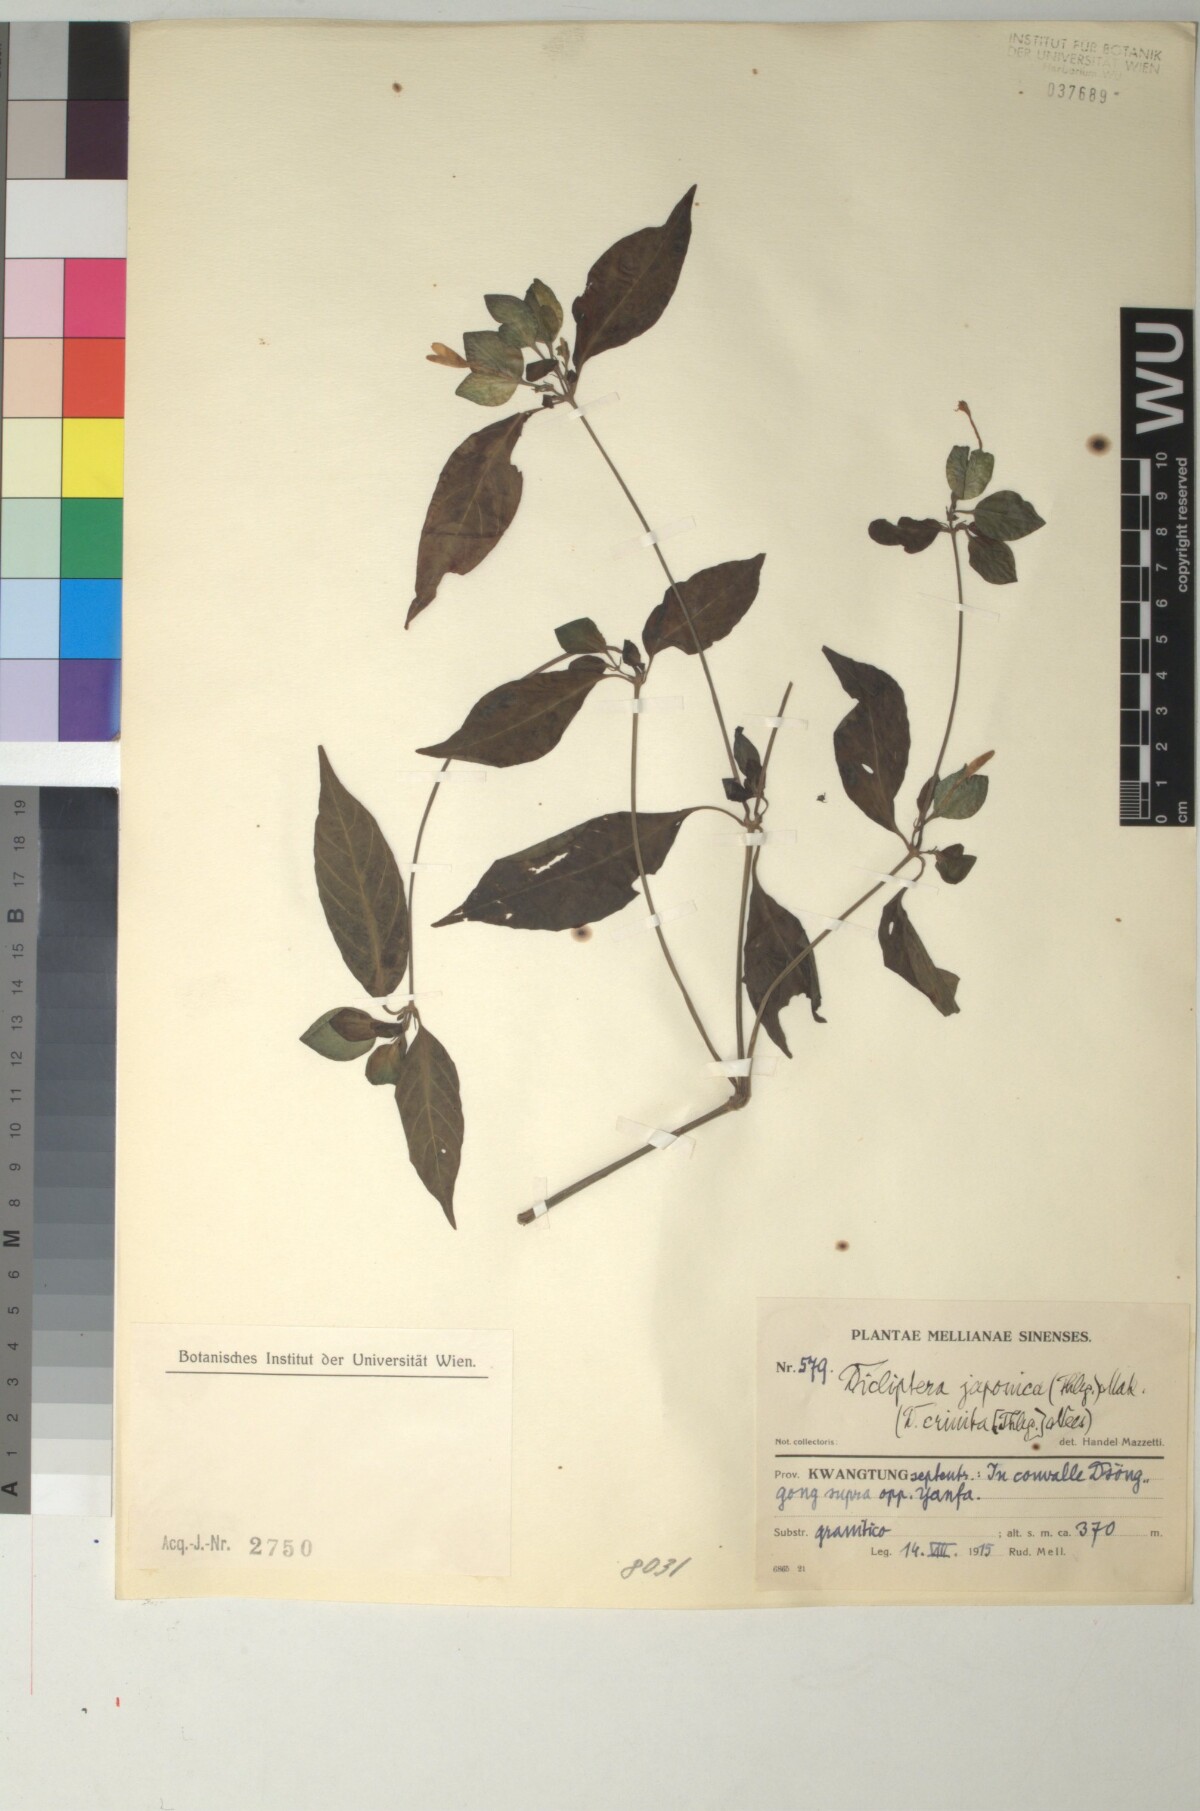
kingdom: Plantae
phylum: Tracheophyta
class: Magnoliopsida
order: Lamiales
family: Acanthaceae
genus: Dicliptera
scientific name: Dicliptera japonica
